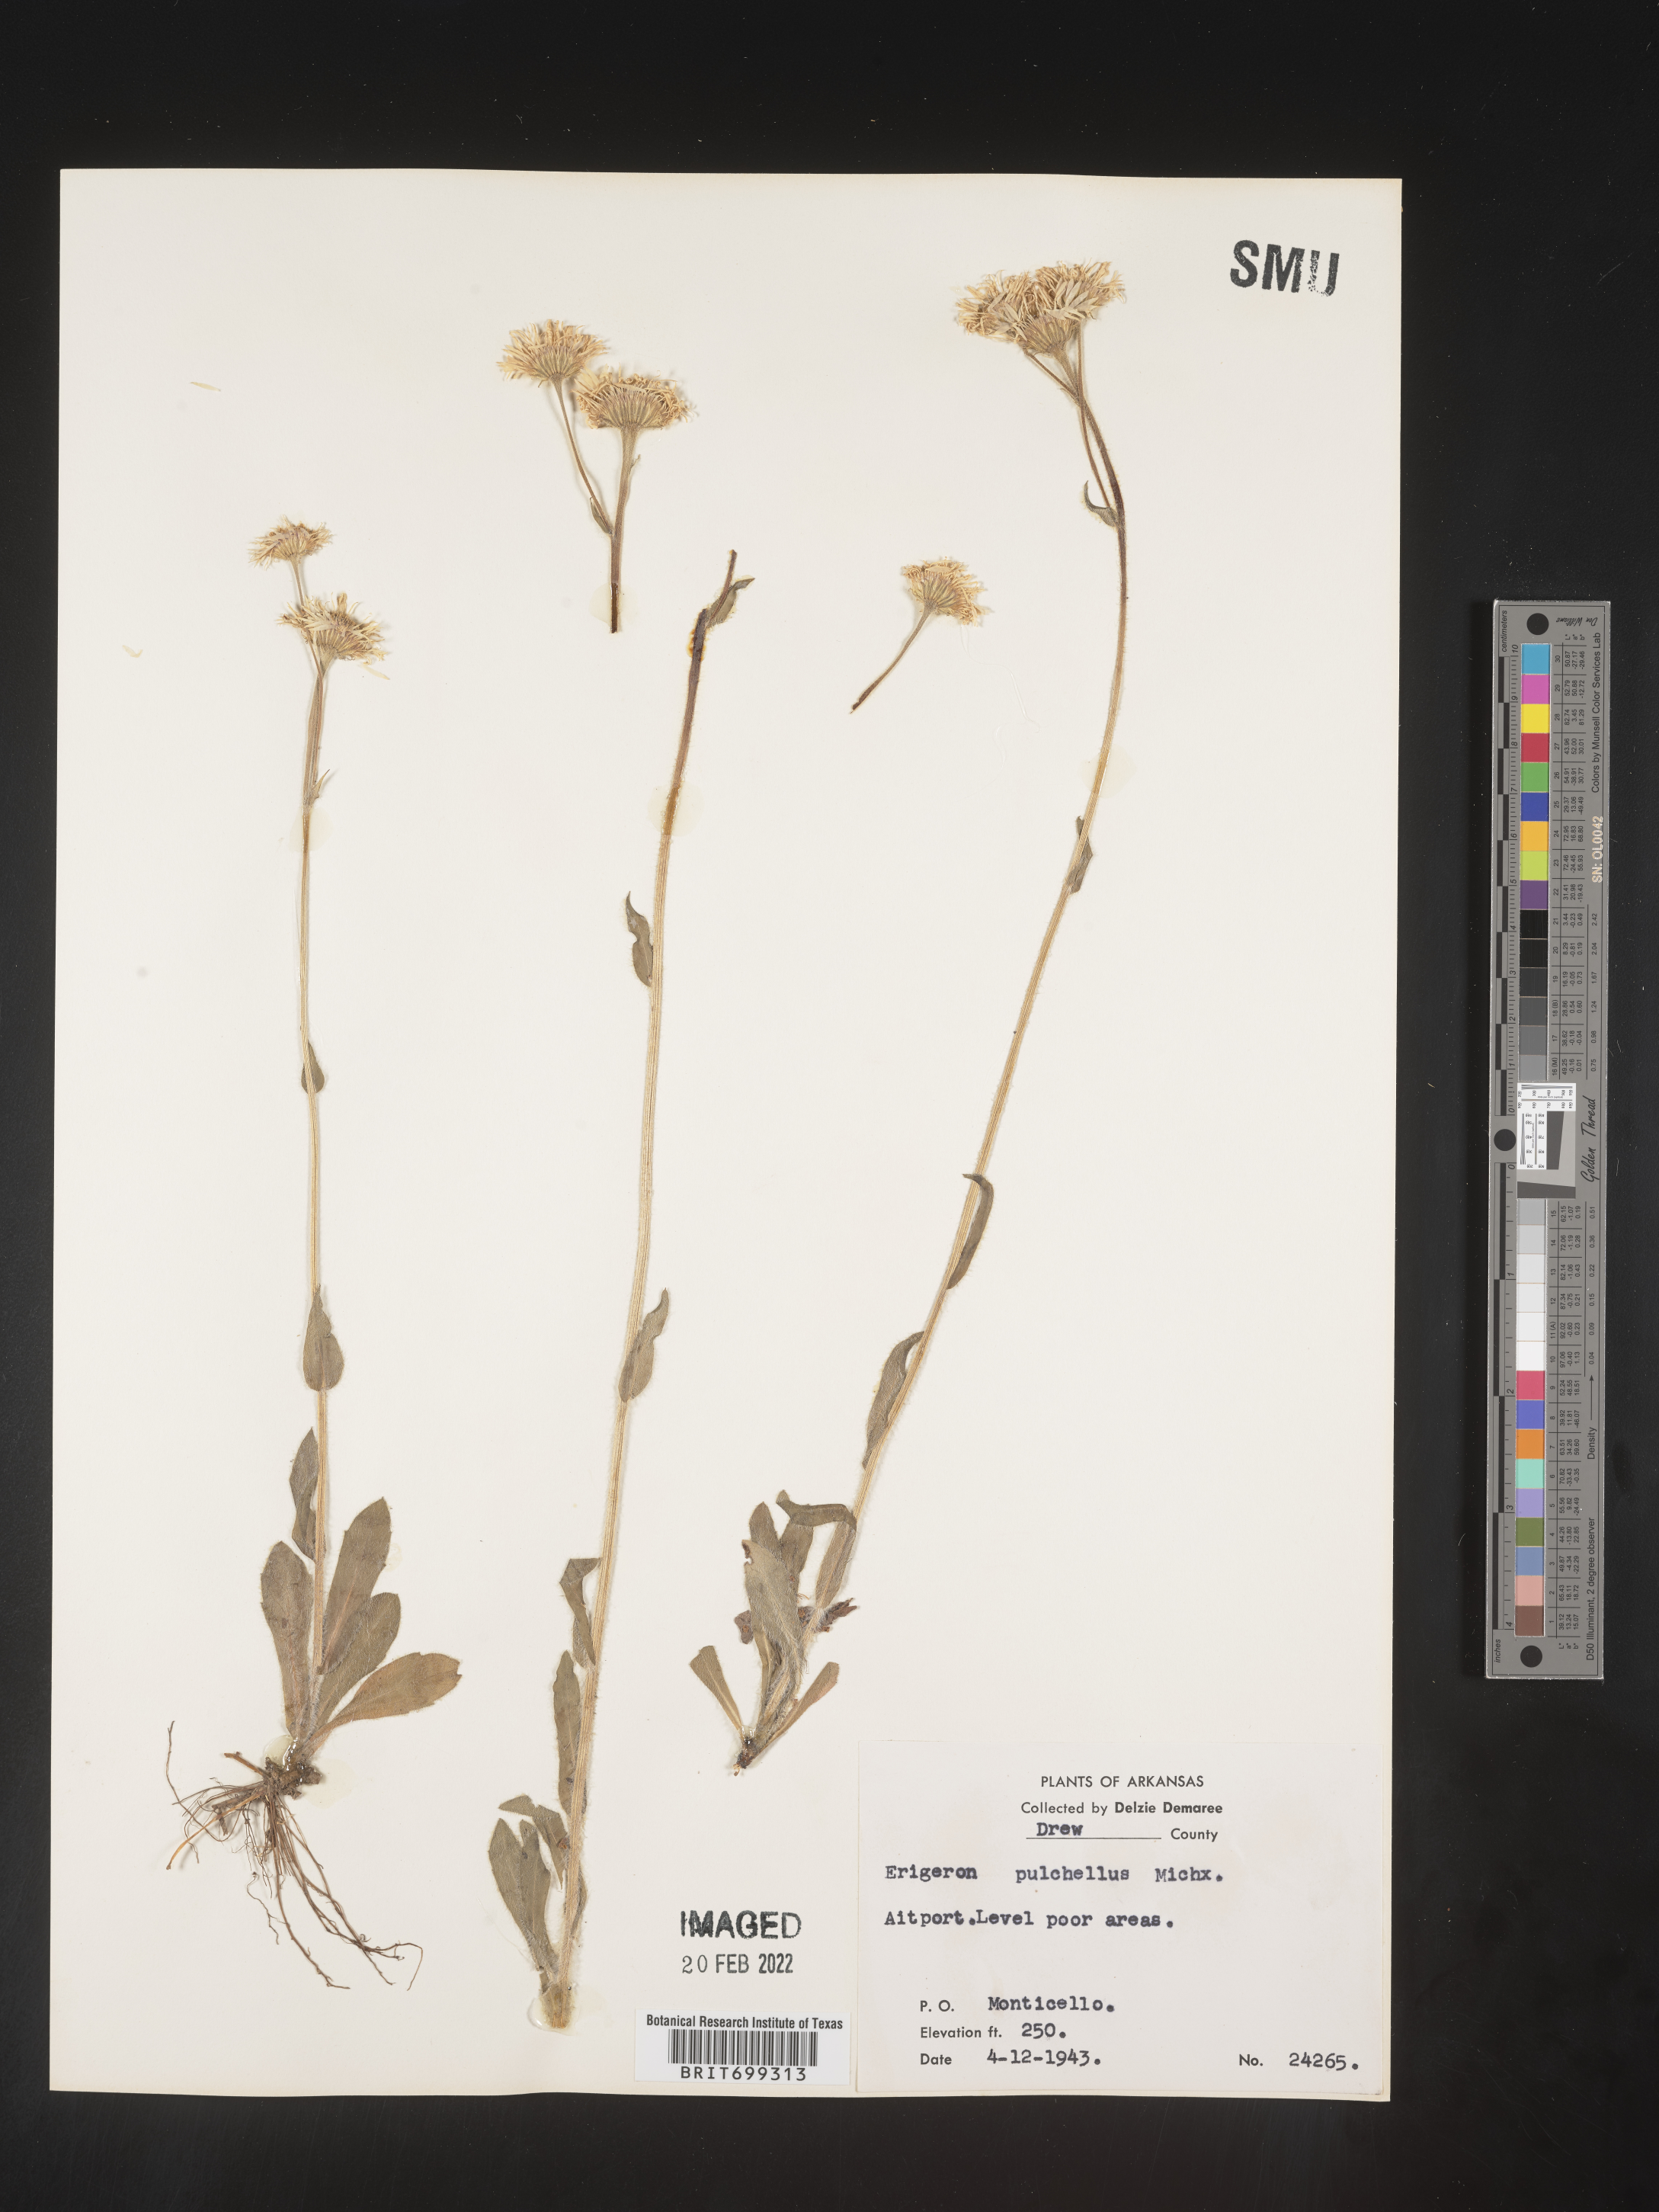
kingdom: Plantae
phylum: Tracheophyta
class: Magnoliopsida
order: Asterales
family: Asteraceae
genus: Erigeron
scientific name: Erigeron pulchellus
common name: Hairy fleabane
